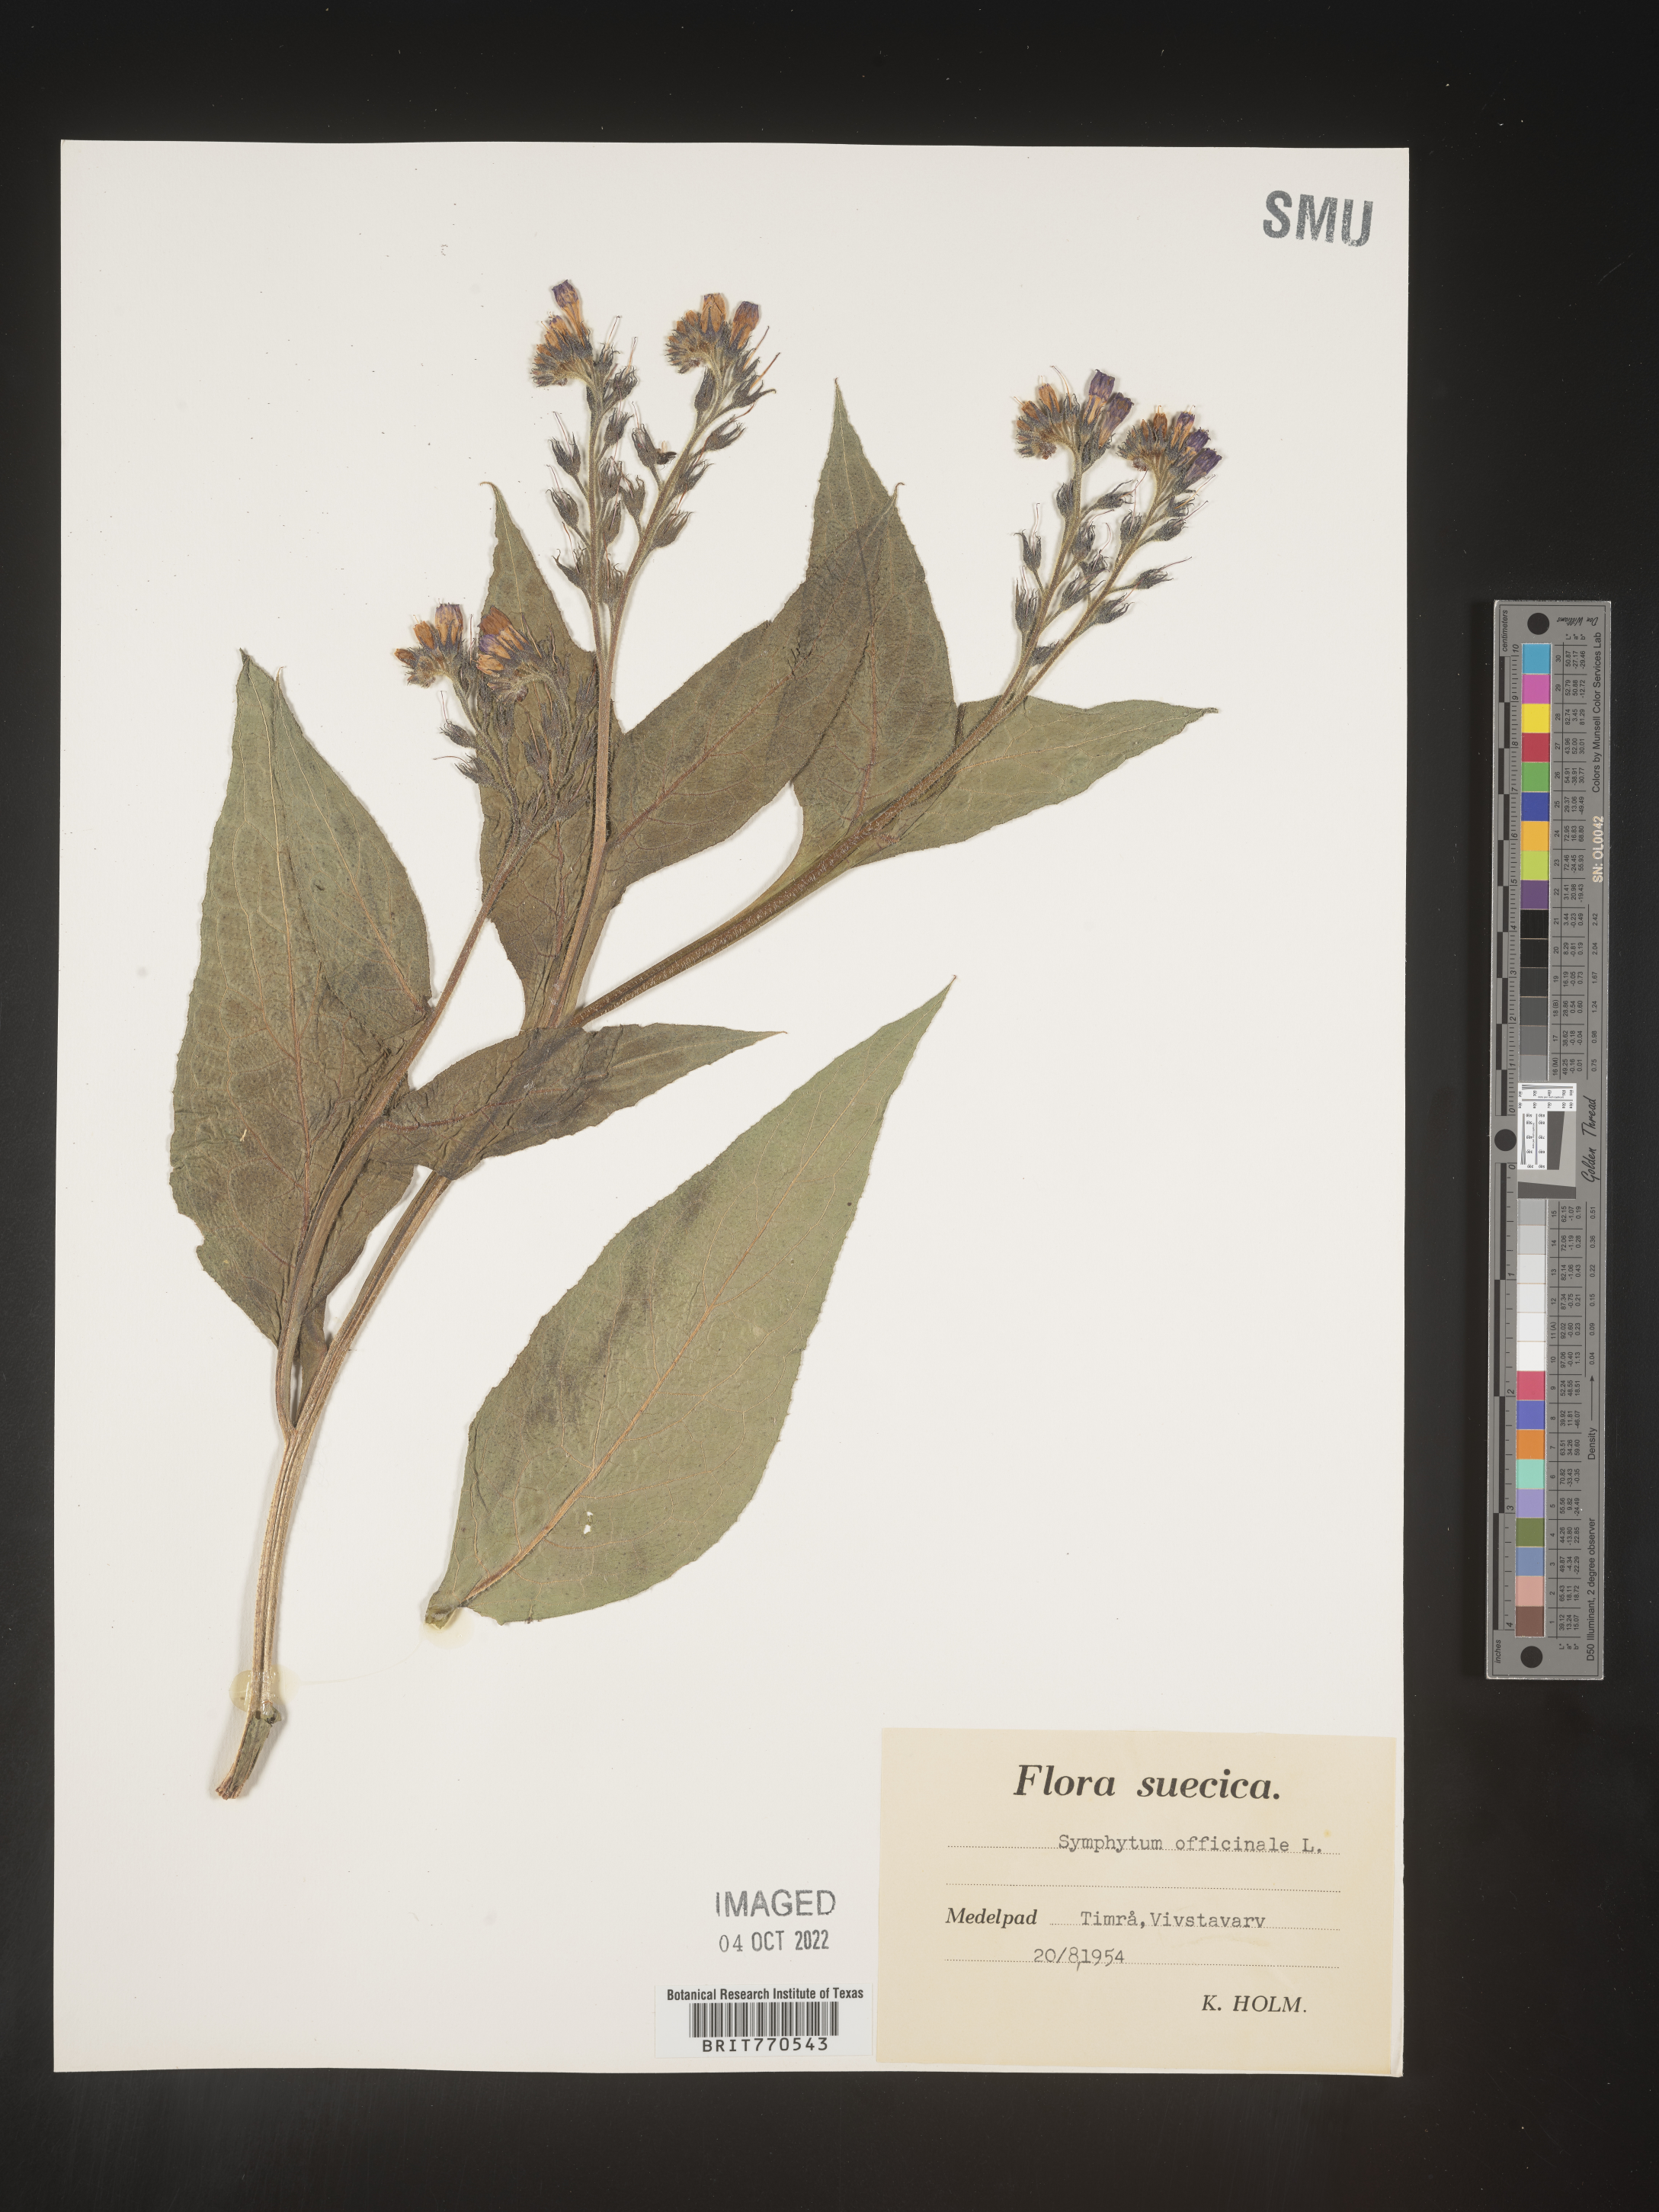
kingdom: Plantae
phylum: Tracheophyta
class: Magnoliopsida
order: Boraginales
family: Boraginaceae
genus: Symphytum
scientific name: Symphytum
